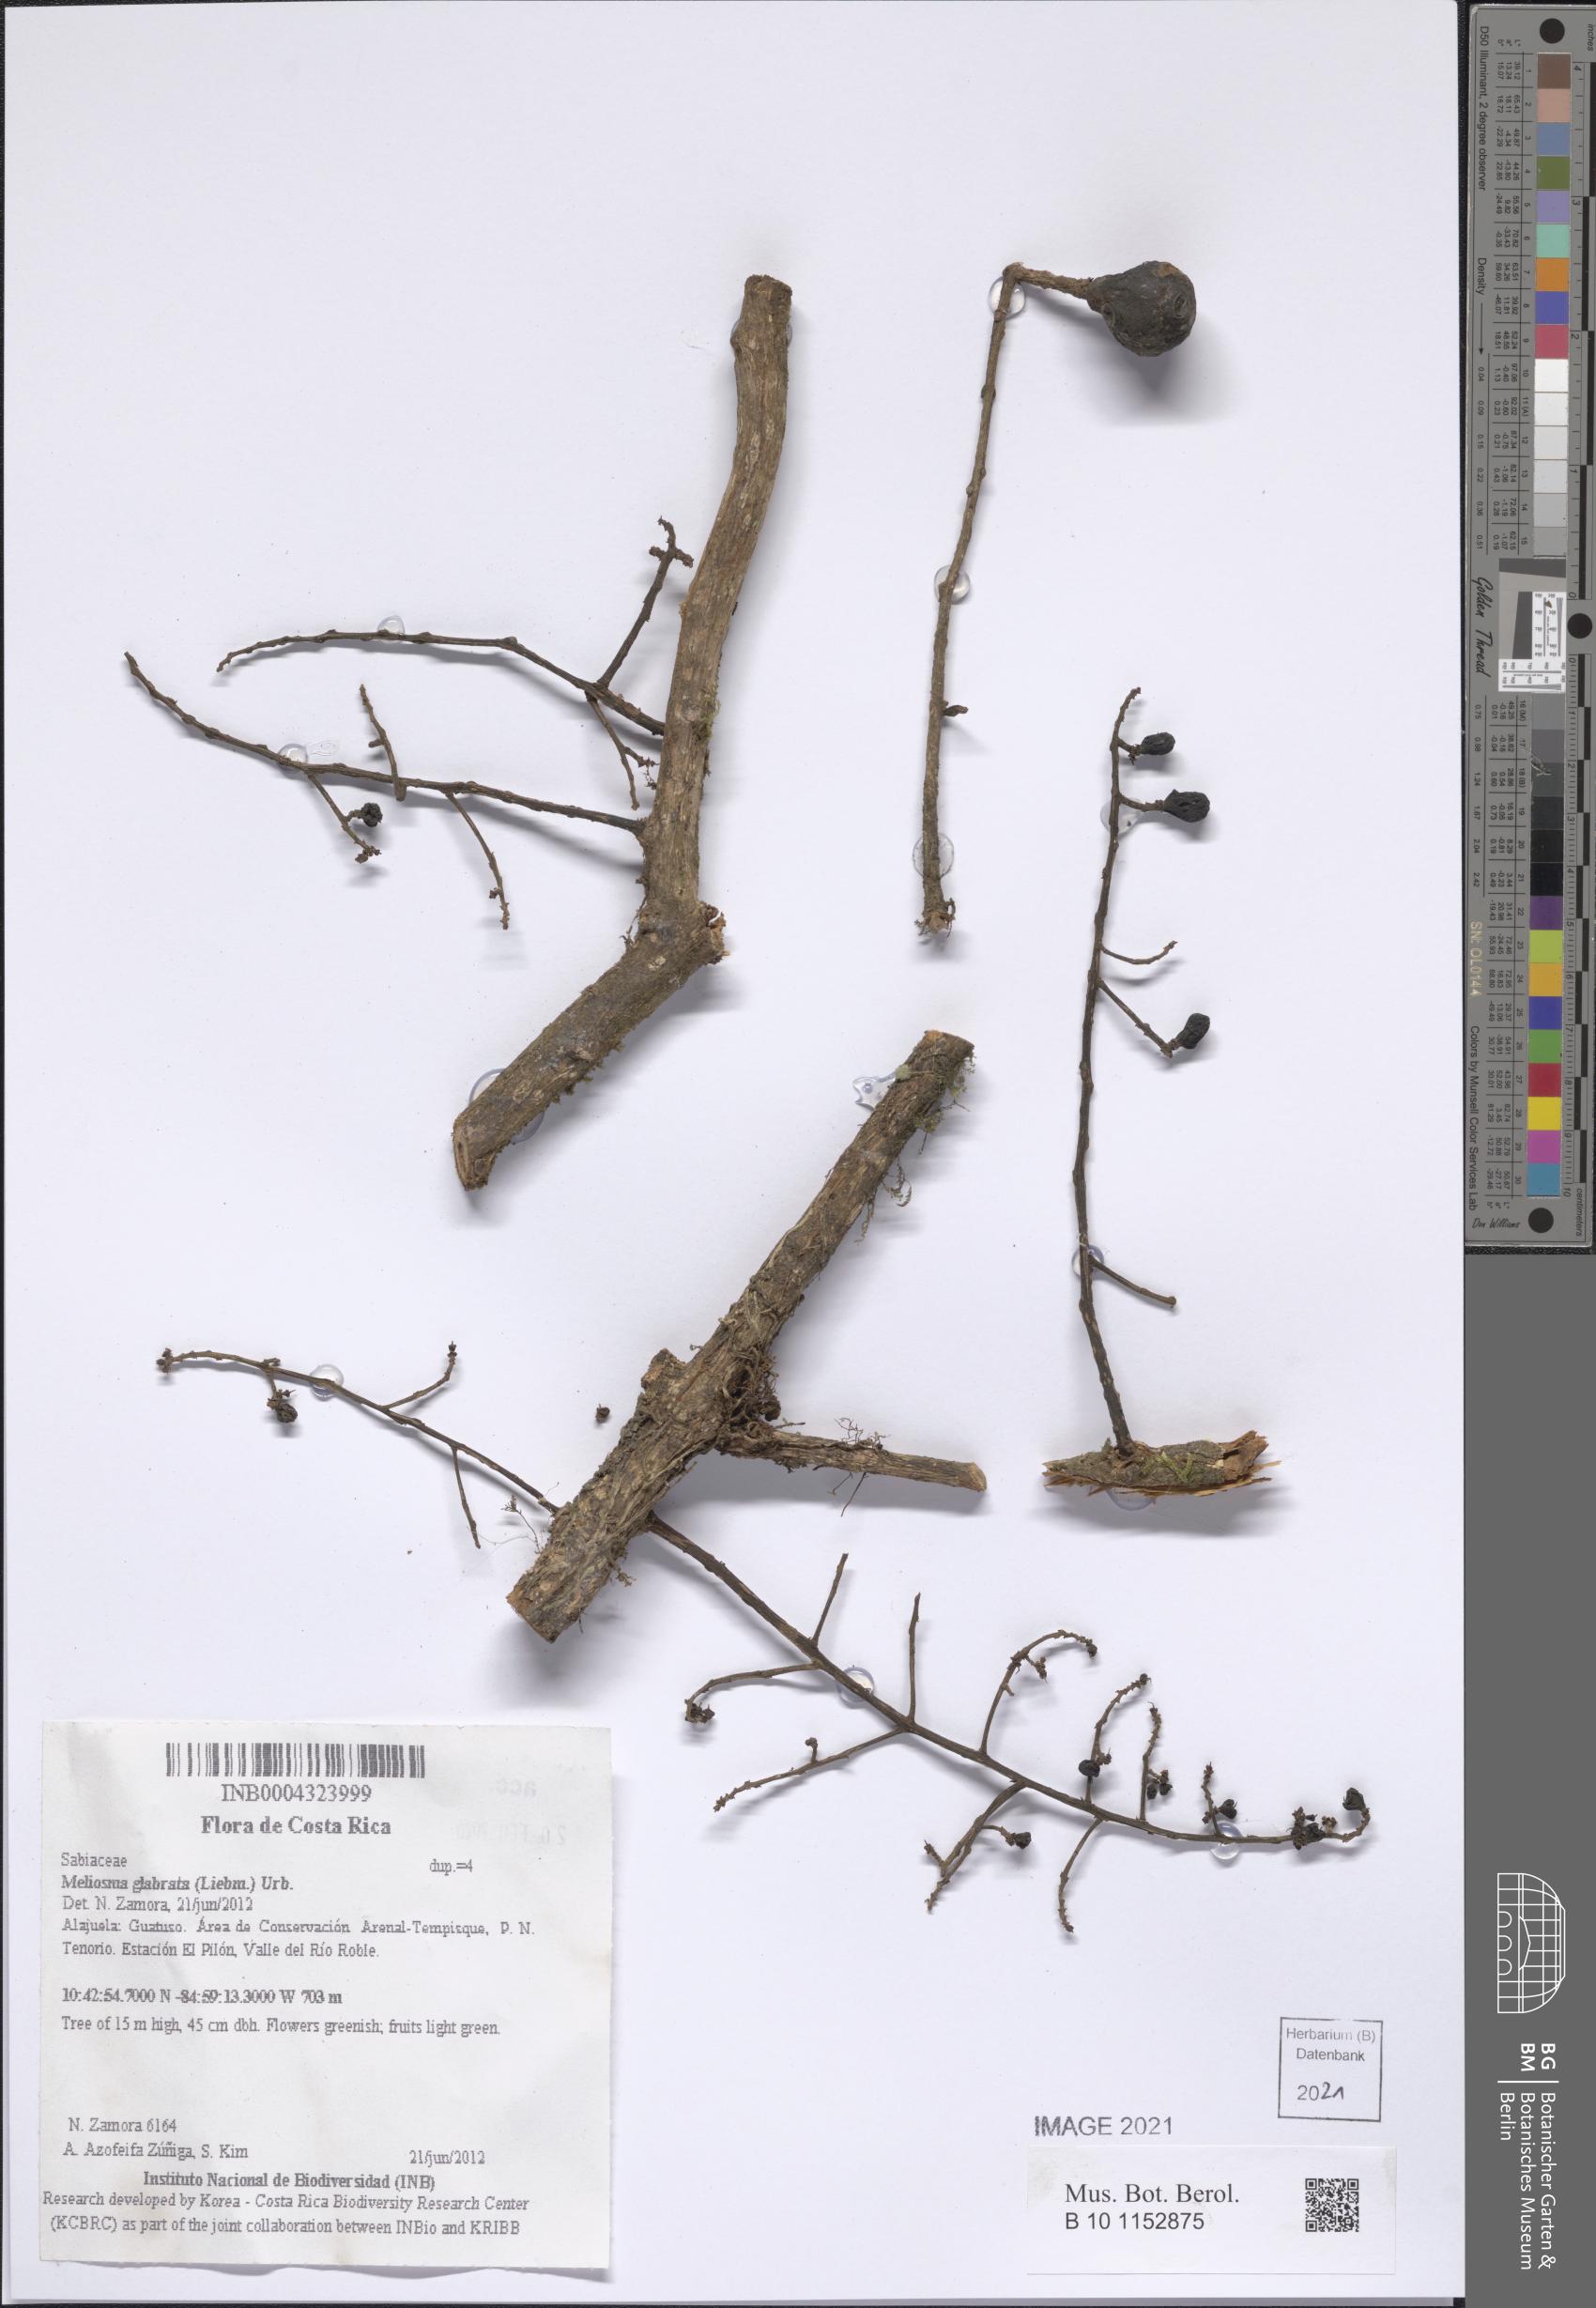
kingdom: Plantae
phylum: Tracheophyta
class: Magnoliopsida
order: Proteales
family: Sabiaceae
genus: Meliosma
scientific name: Meliosma glabrata
